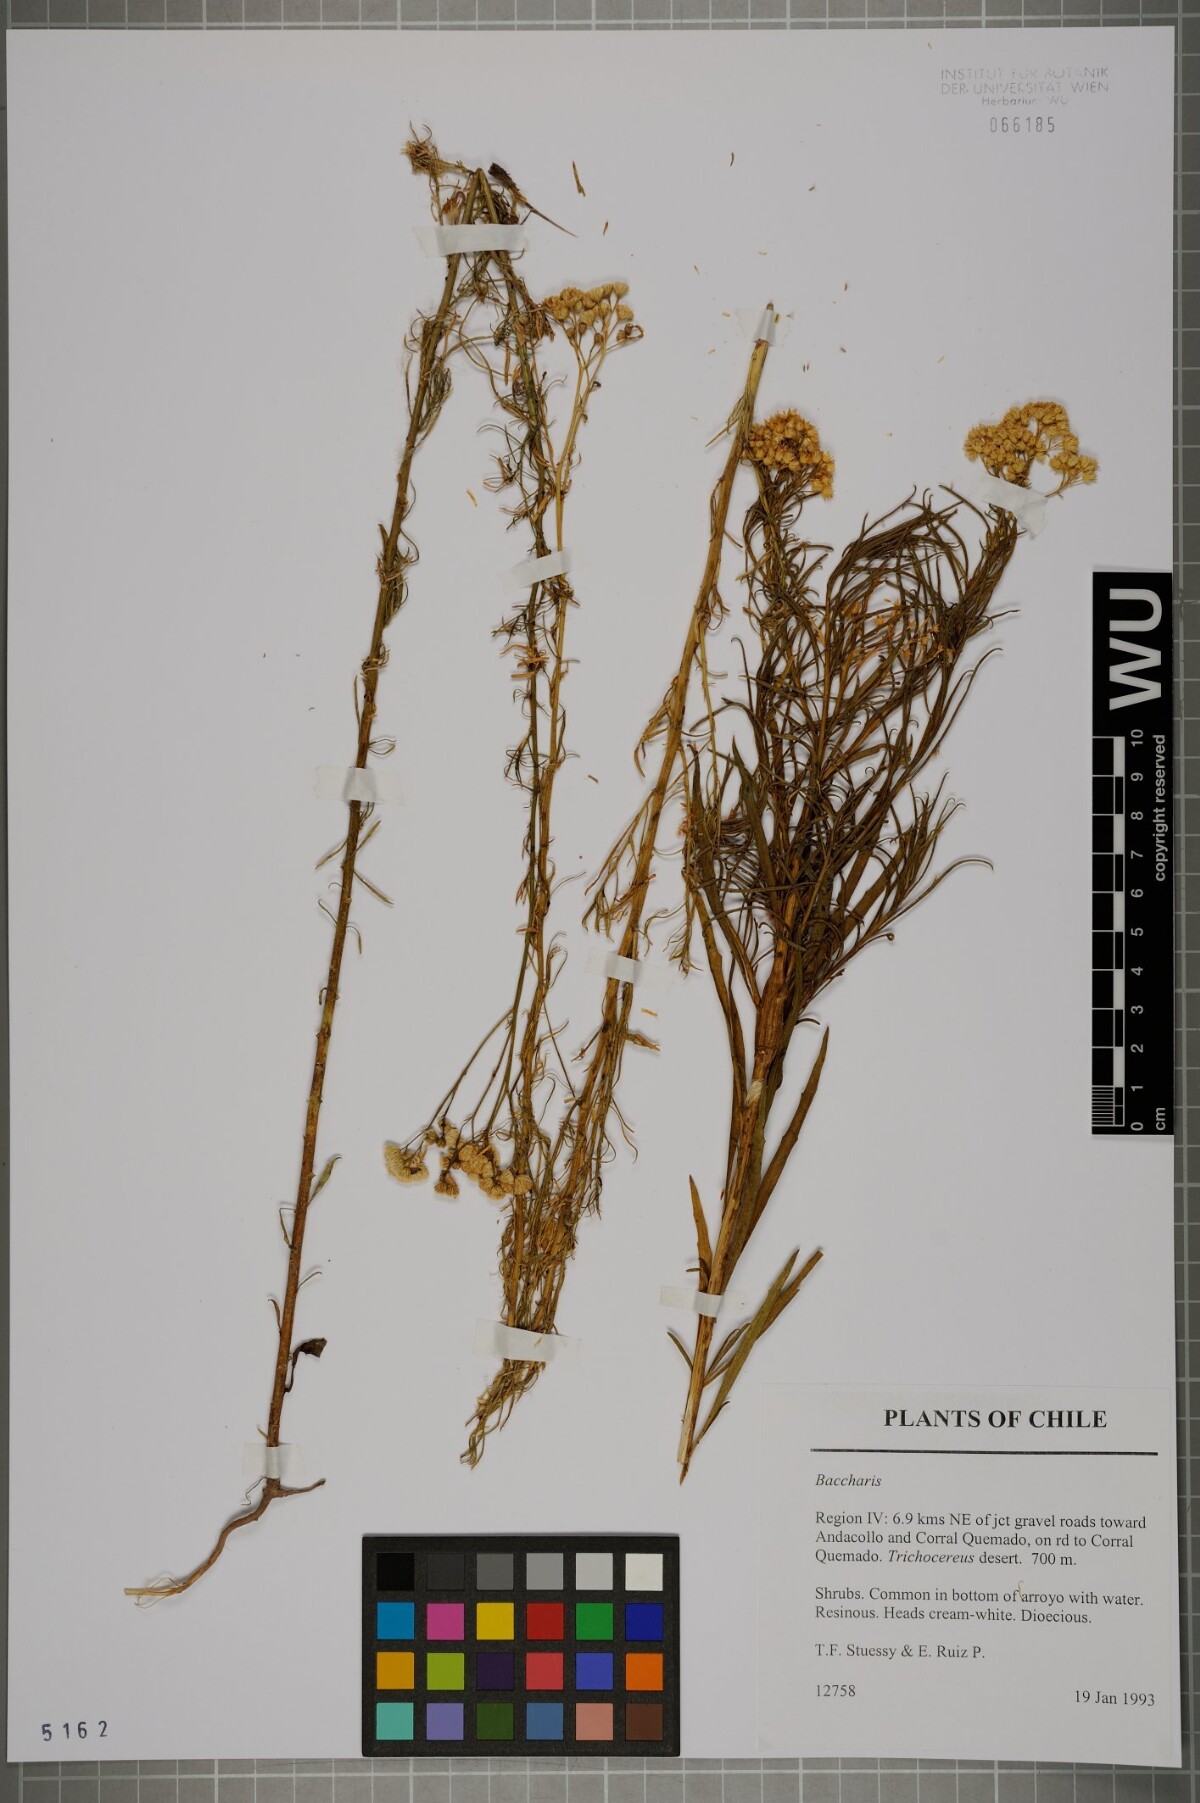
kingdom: Plantae
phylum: Tracheophyta
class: Magnoliopsida
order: Asterales
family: Asteraceae
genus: Baccharis
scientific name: Baccharis salicifolia
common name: Sticky baccharis
